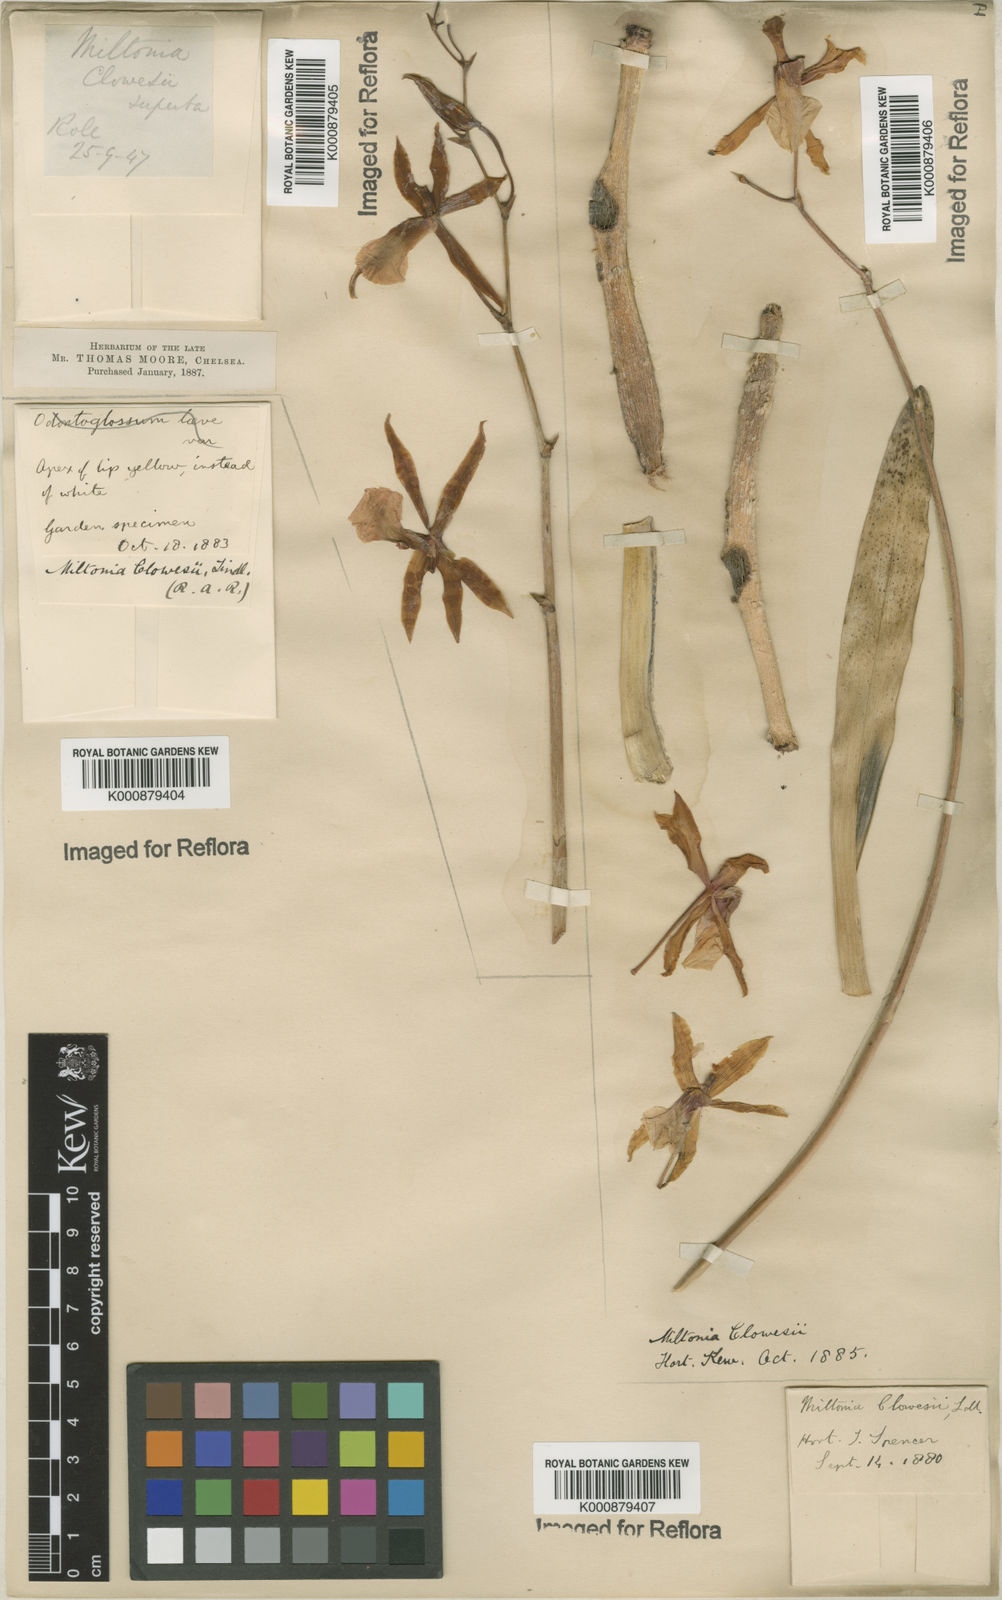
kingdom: Plantae
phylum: Tracheophyta
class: Liliopsida
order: Asparagales
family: Orchidaceae
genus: Miltonia
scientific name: Miltonia clowesii
